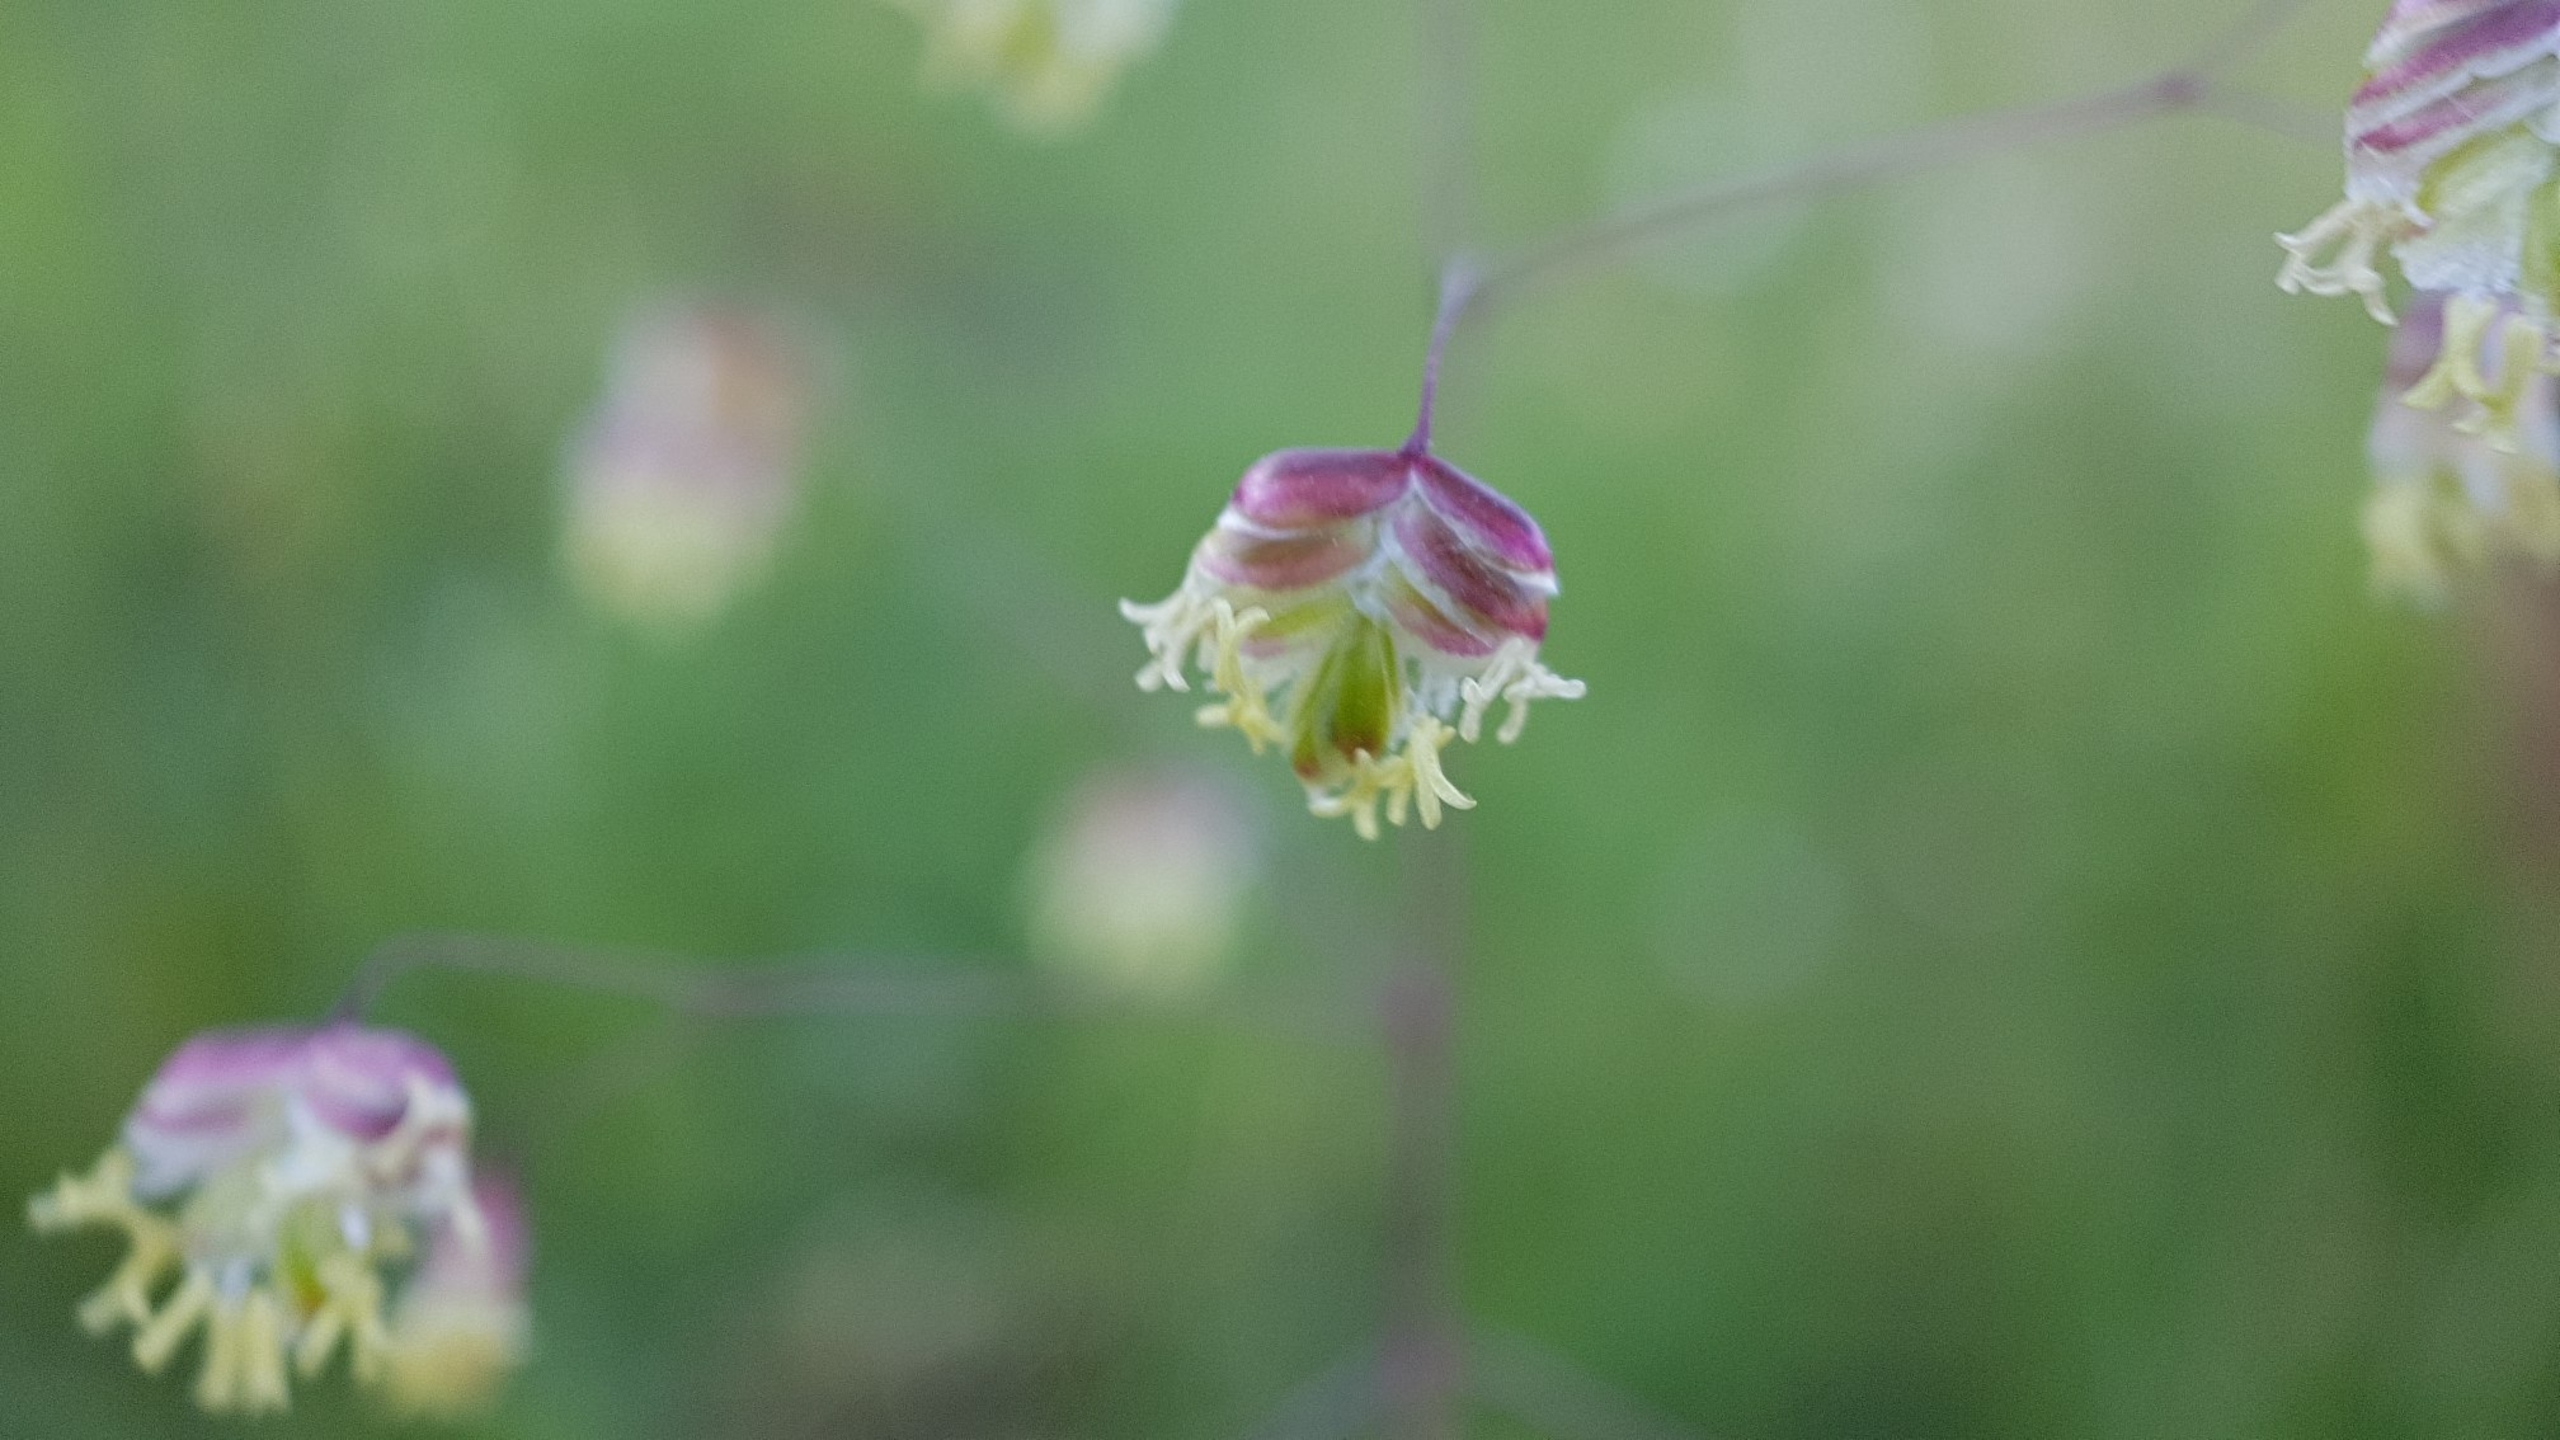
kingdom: Plantae
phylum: Tracheophyta
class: Liliopsida
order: Poales
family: Poaceae
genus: Briza
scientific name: Briza media
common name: Hjertegræs
